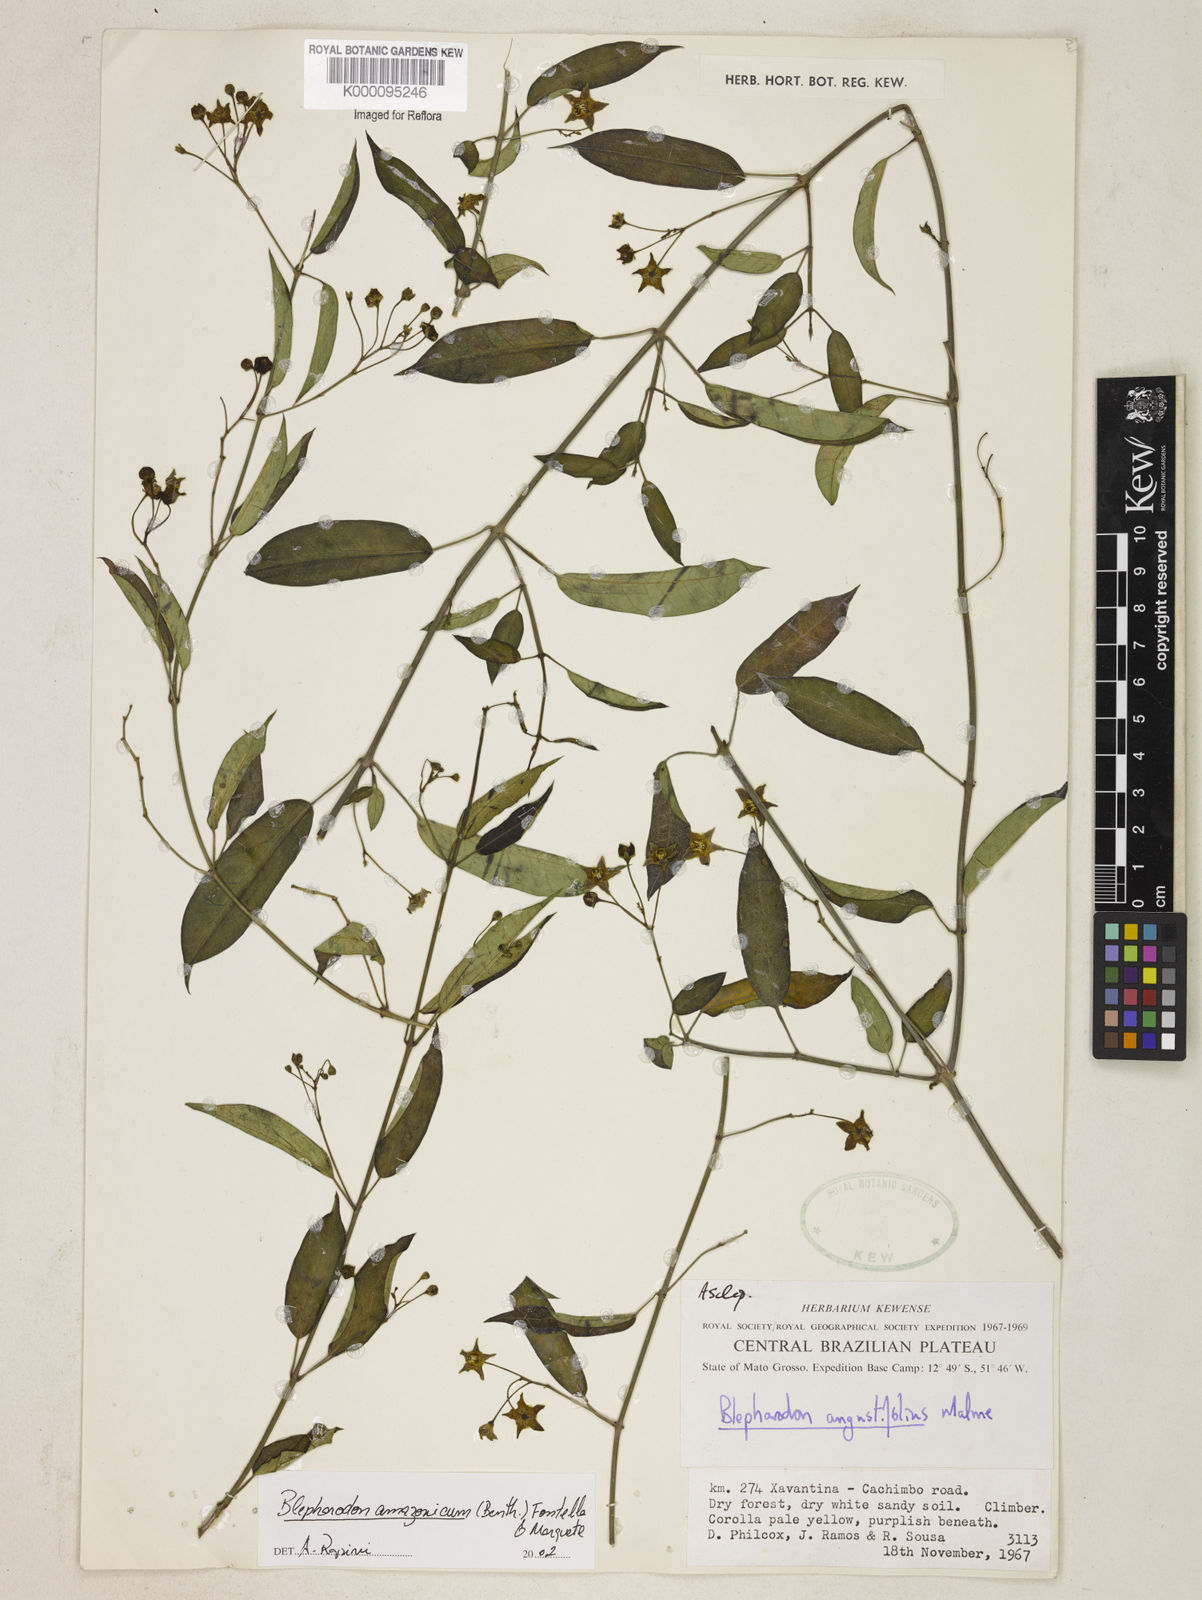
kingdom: Plantae
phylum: Tracheophyta
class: Magnoliopsida
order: Gentianales
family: Apocynaceae
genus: Blepharodon
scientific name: Blepharodon amazonicum
